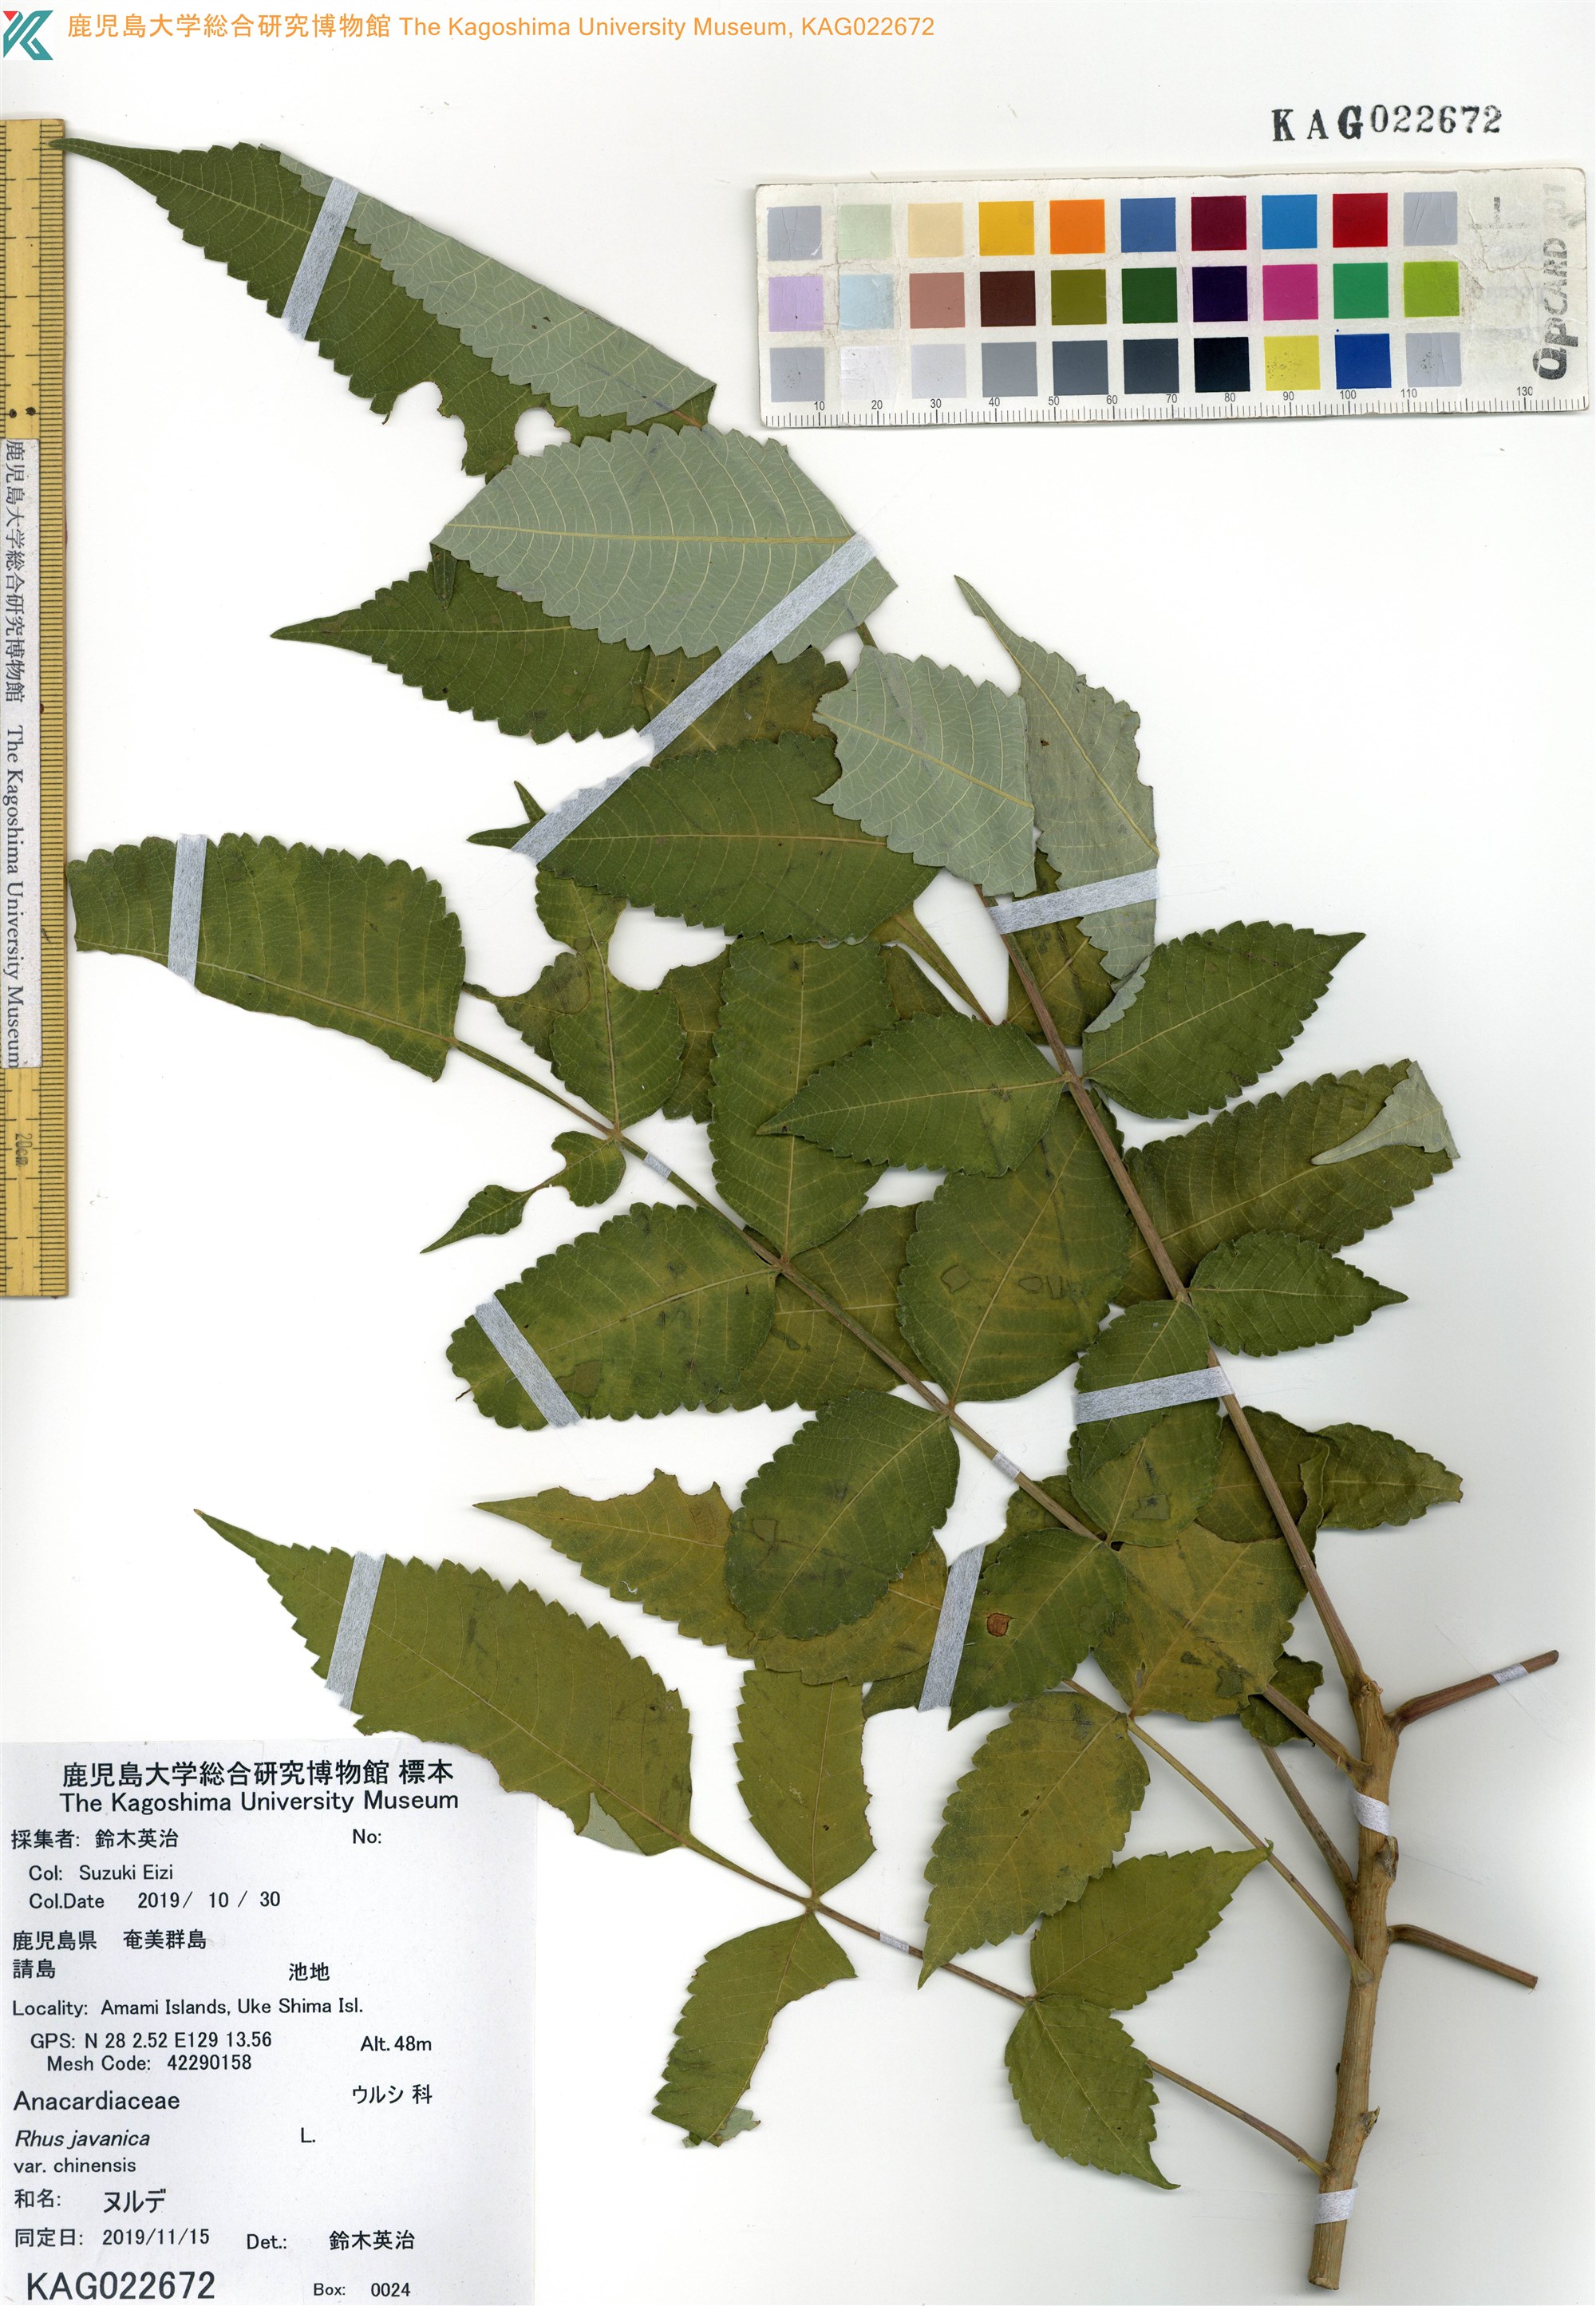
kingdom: Plantae
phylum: Tracheophyta
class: Magnoliopsida
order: Sapindales
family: Simaroubaceae
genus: Brucea
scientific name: Brucea javanica
